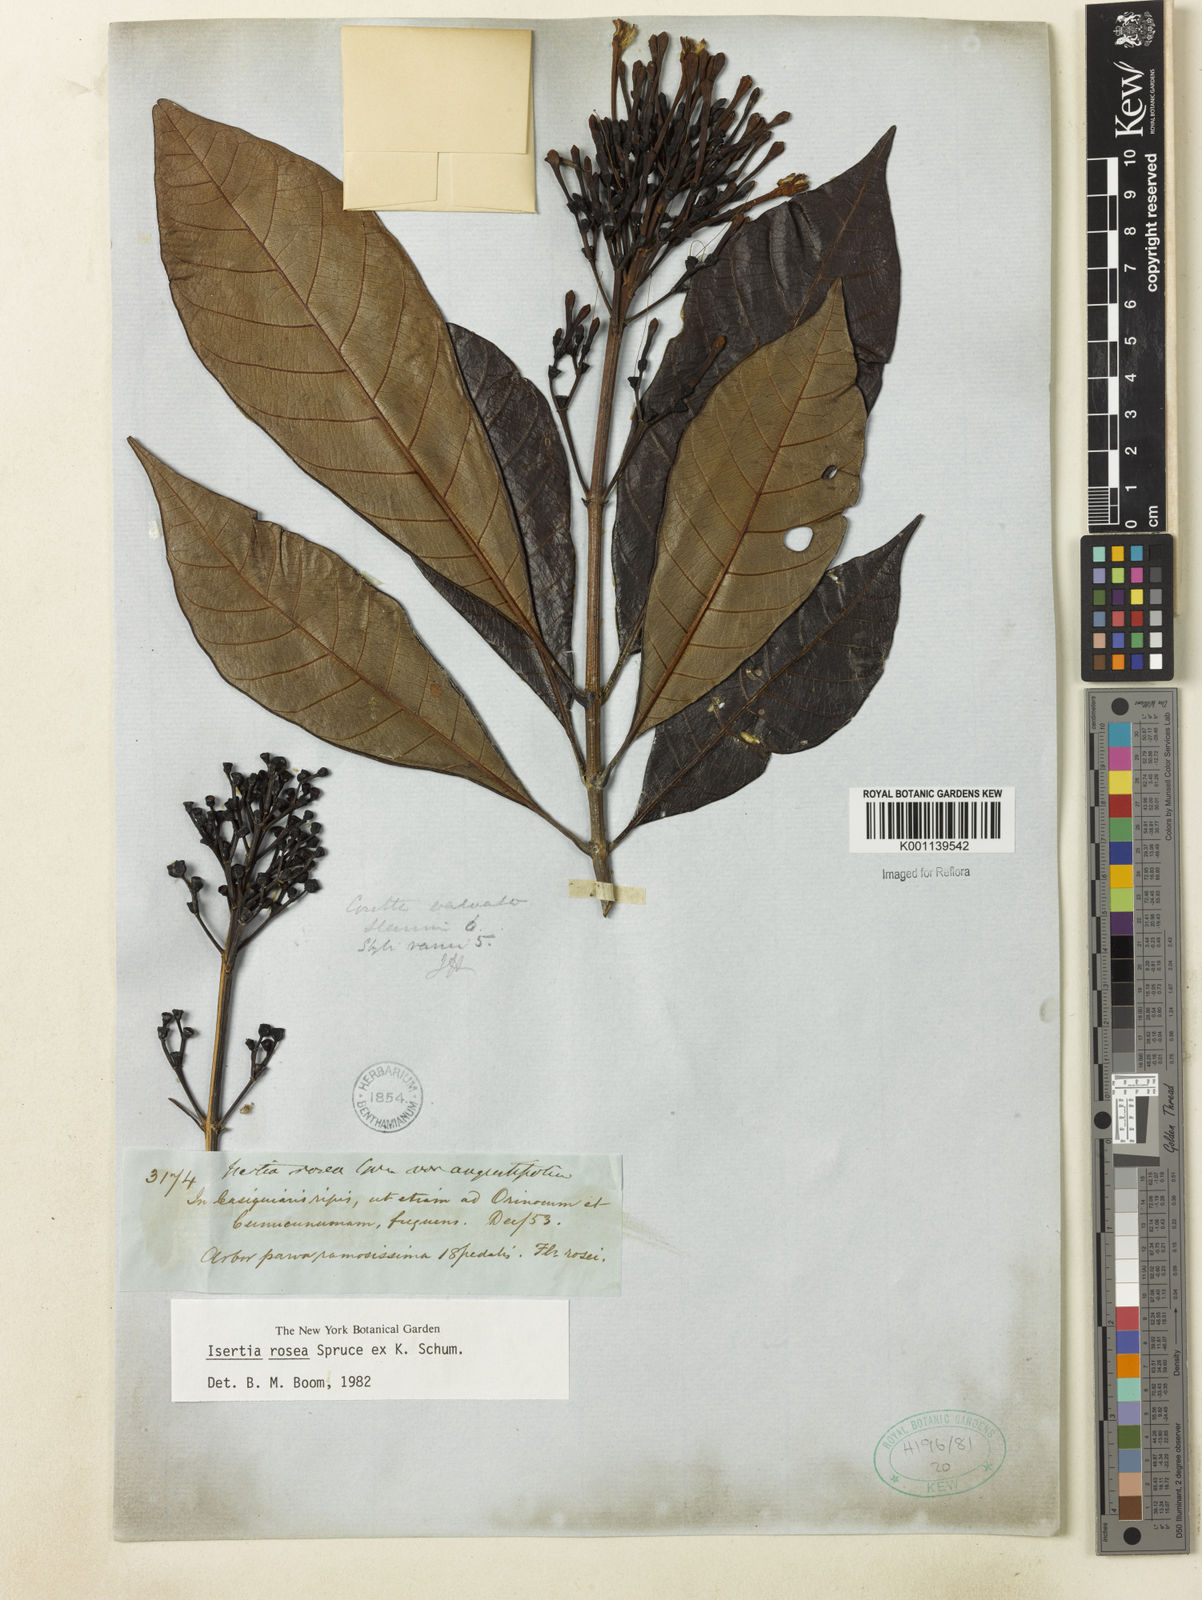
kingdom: Plantae
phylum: Tracheophyta
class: Magnoliopsida
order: Gentianales
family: Rubiaceae
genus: Isertia
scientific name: Isertia rosea
